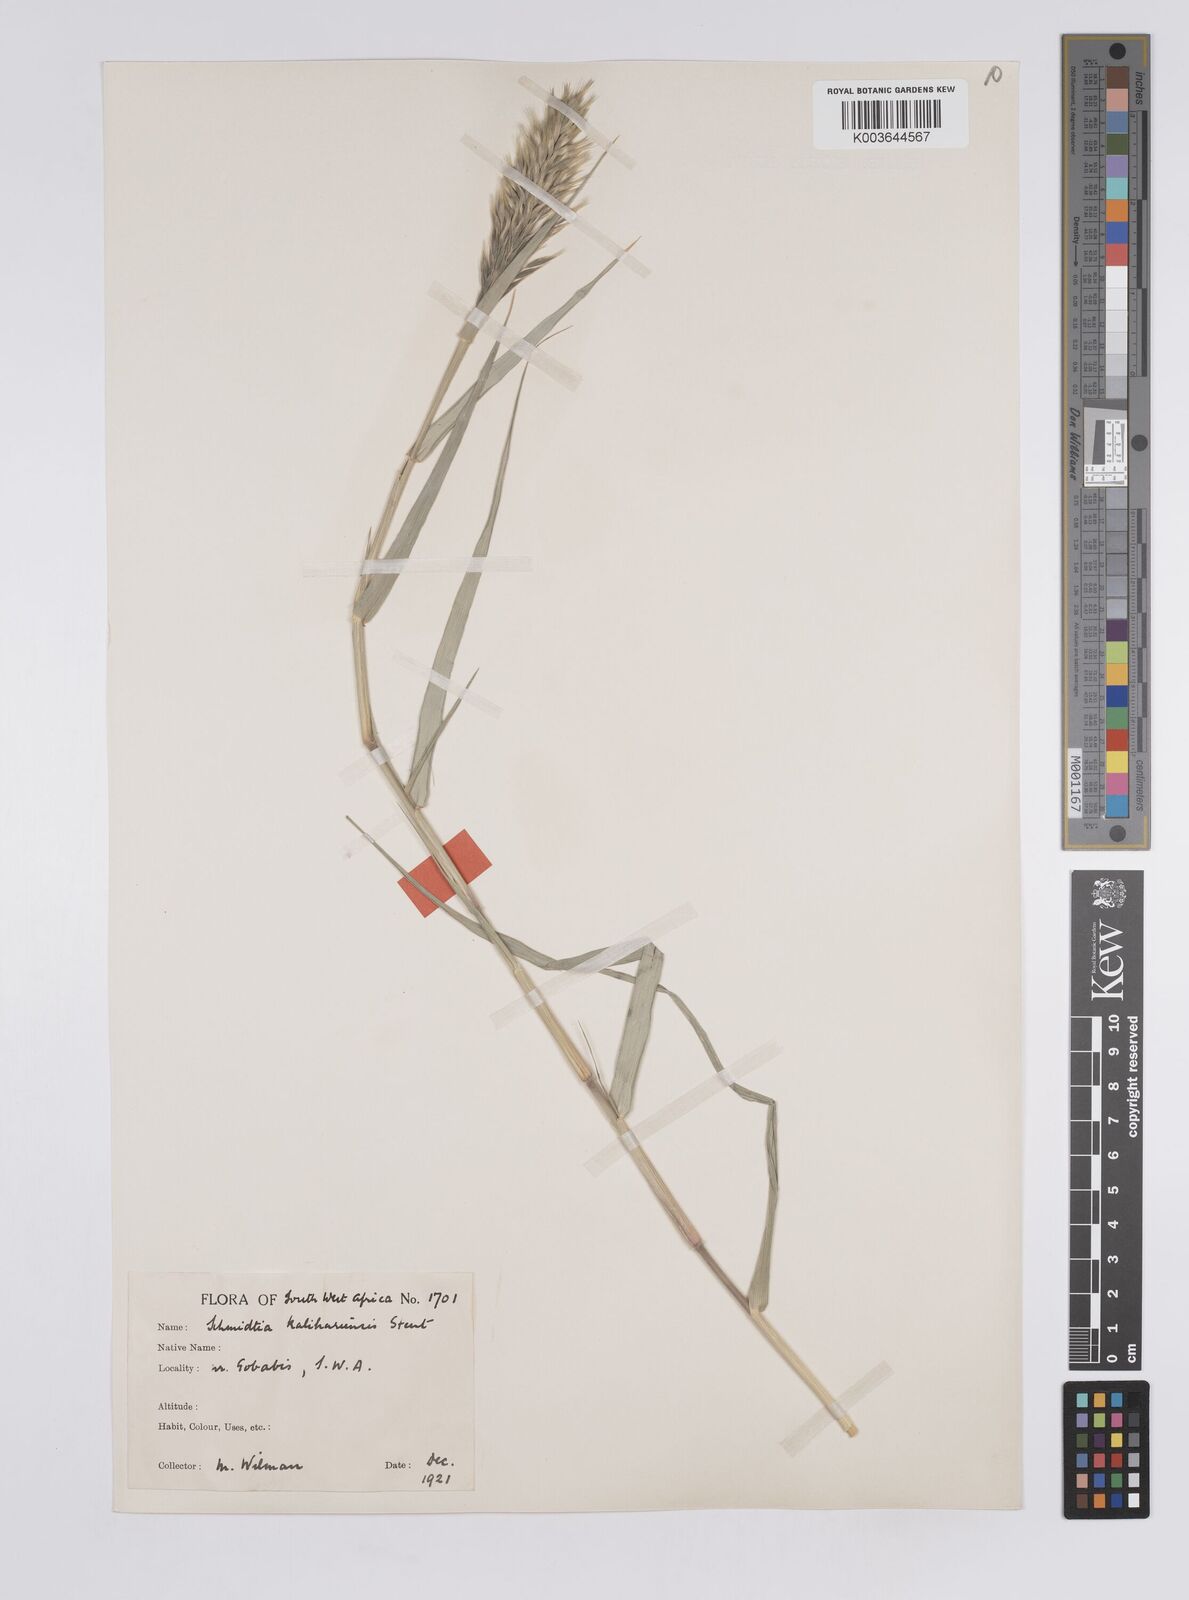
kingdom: Plantae
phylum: Tracheophyta
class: Liliopsida
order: Poales
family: Poaceae
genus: Schmidtia
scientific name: Schmidtia kalahariensis
